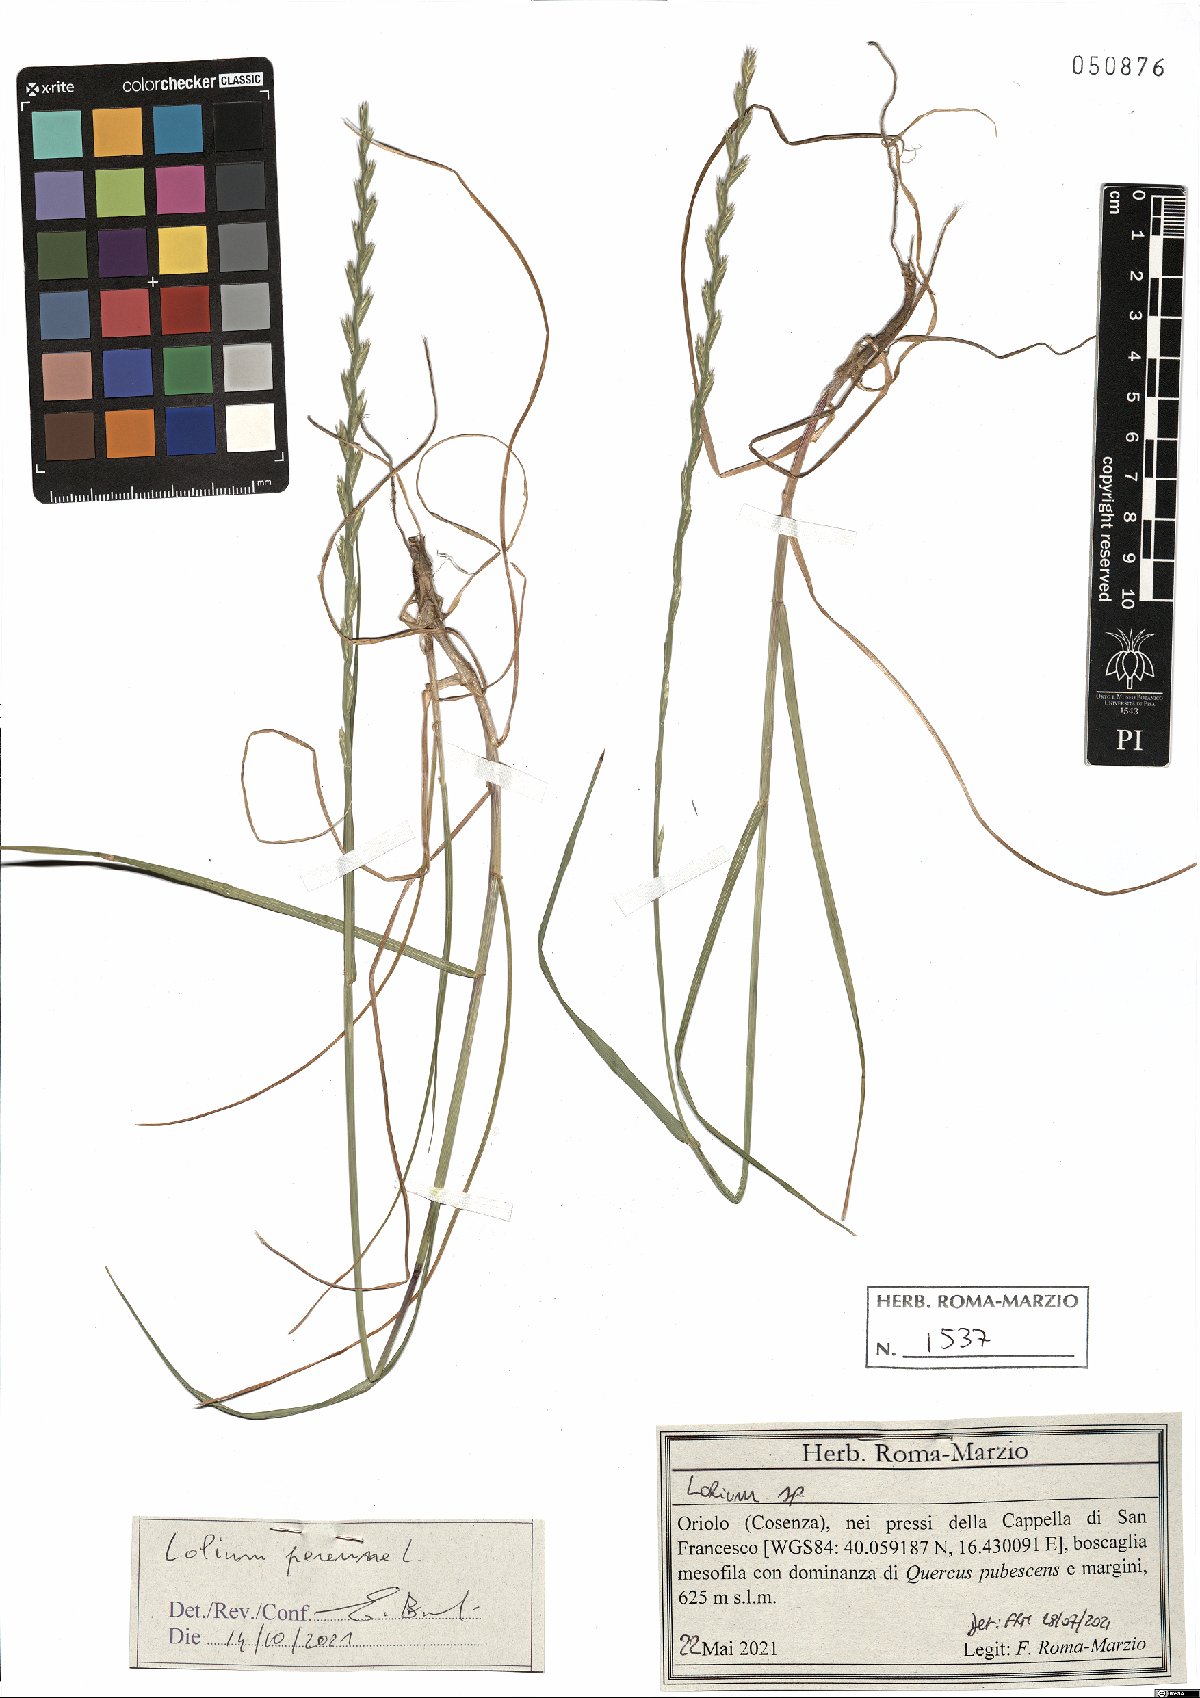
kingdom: Plantae
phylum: Tracheophyta
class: Liliopsida
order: Poales
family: Poaceae
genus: Lolium
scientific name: Lolium perenne
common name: Perennial ryegrass
